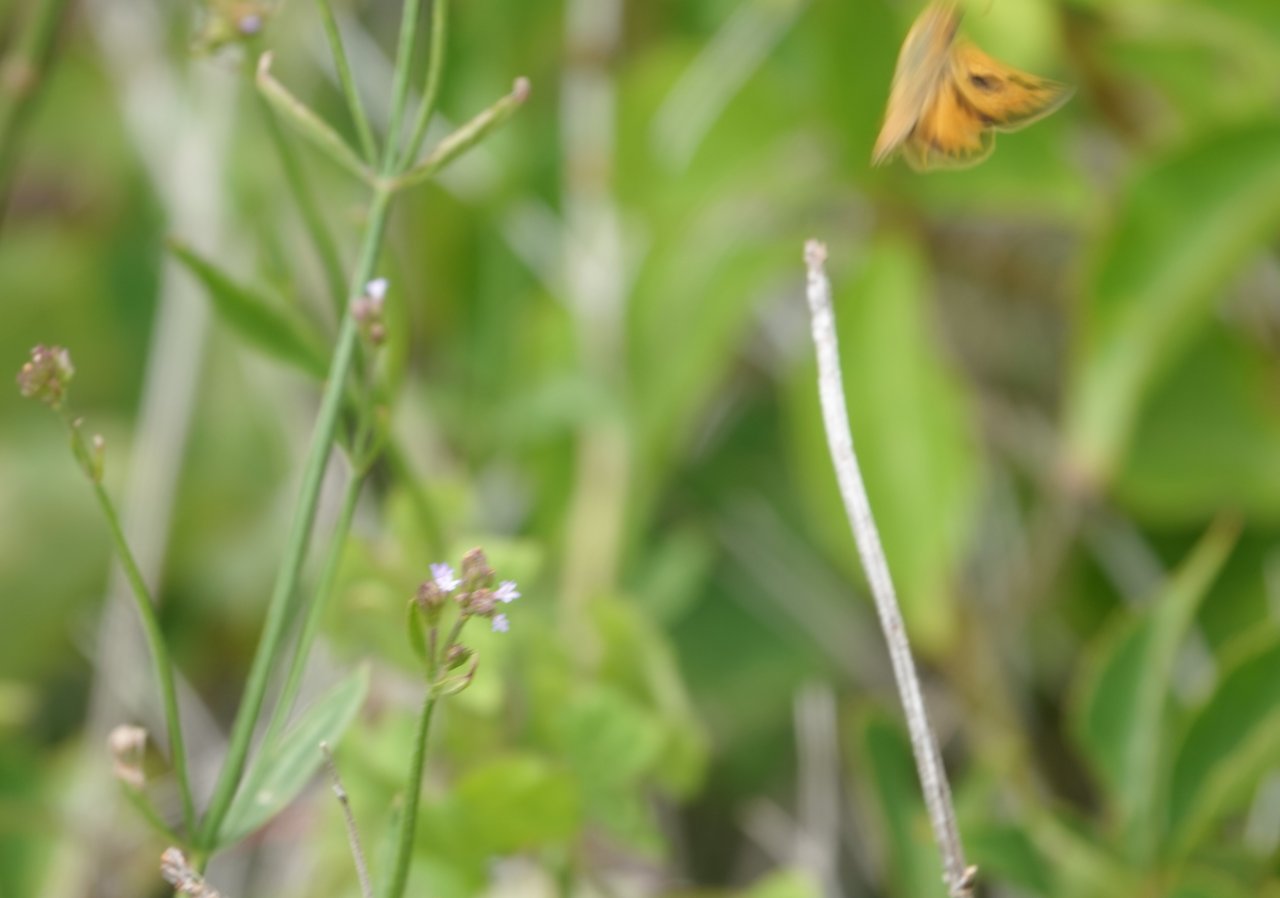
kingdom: Animalia
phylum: Arthropoda
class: Insecta
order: Lepidoptera
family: Hesperiidae
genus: Hylephila
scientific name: Hylephila phyleus
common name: Fiery Skipper
